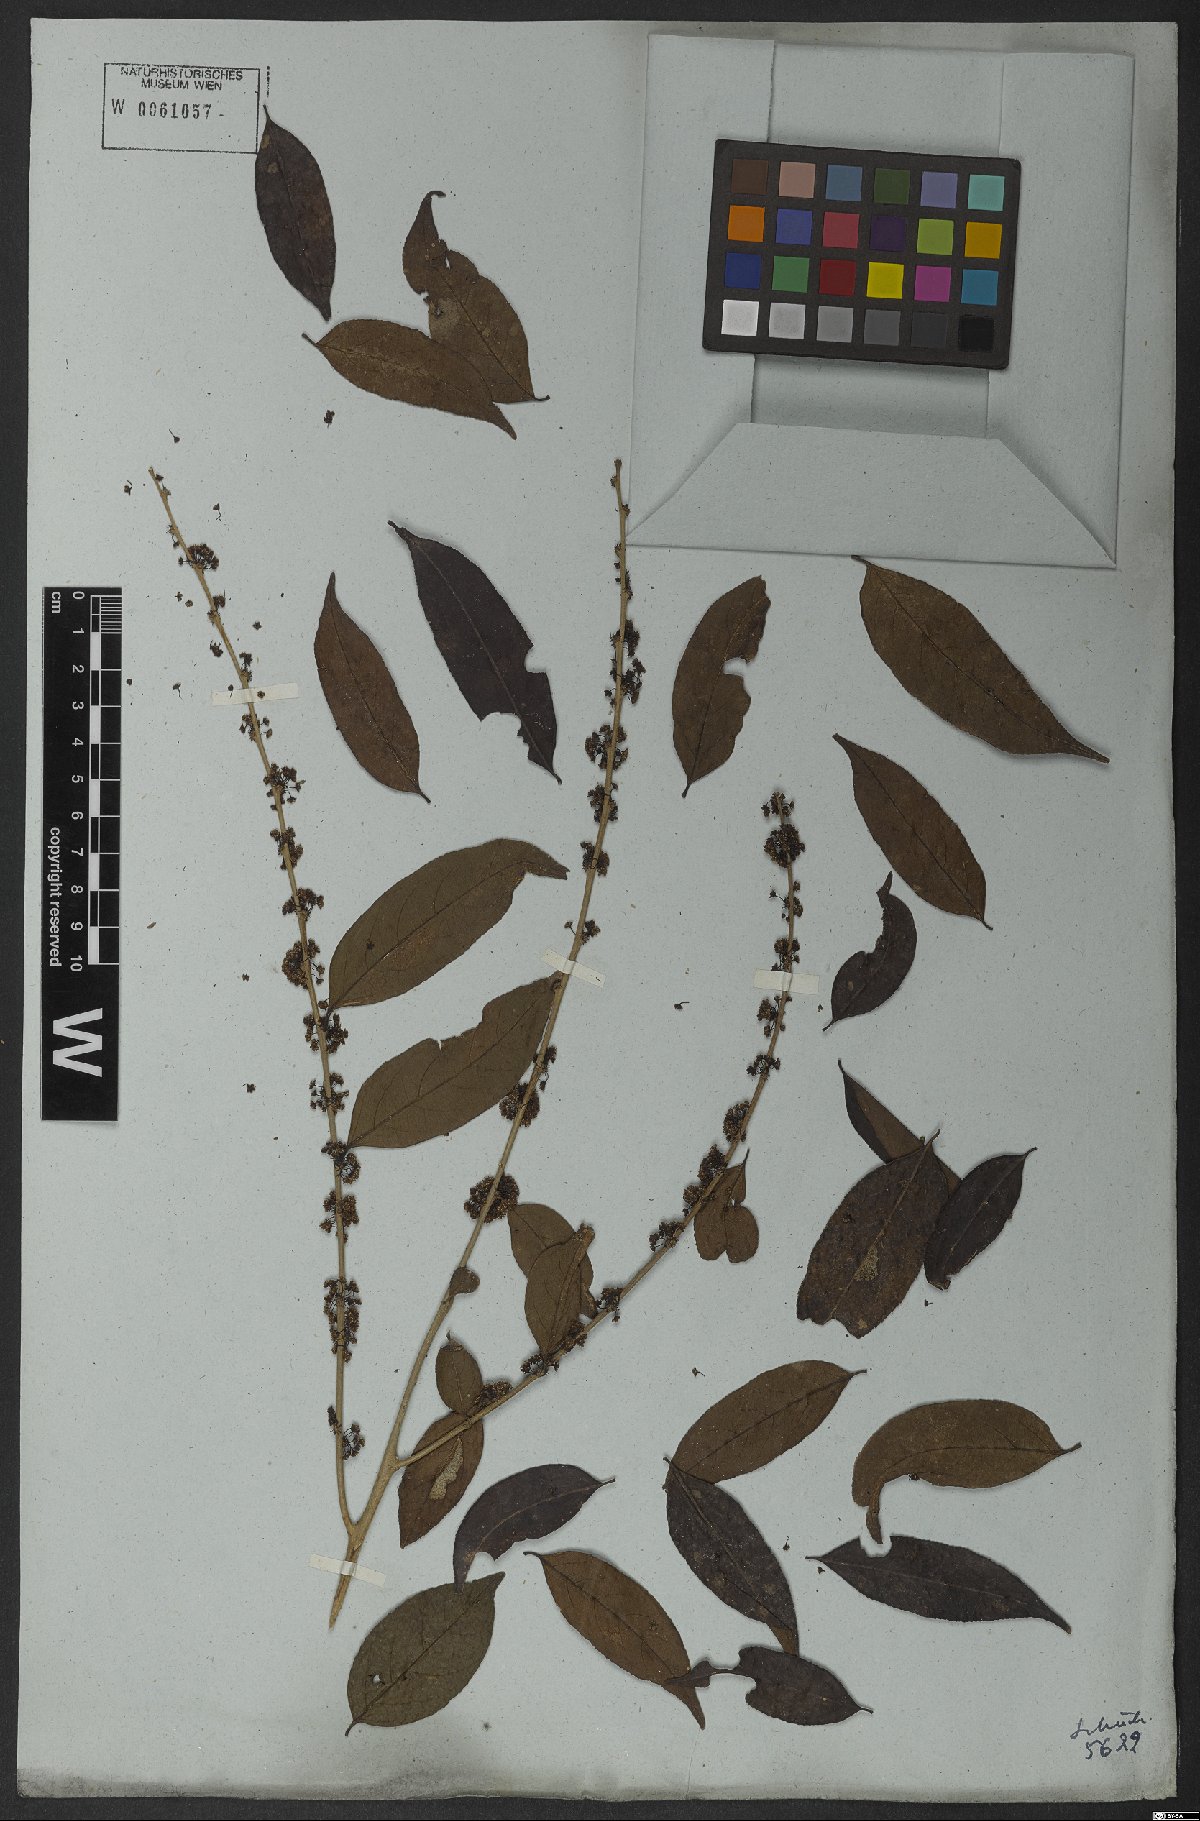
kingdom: Plantae
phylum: Tracheophyta
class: Magnoliopsida
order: Malpighiales
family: Salicaceae
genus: Casearia
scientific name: Casearia sylvestris
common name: Wild sage
